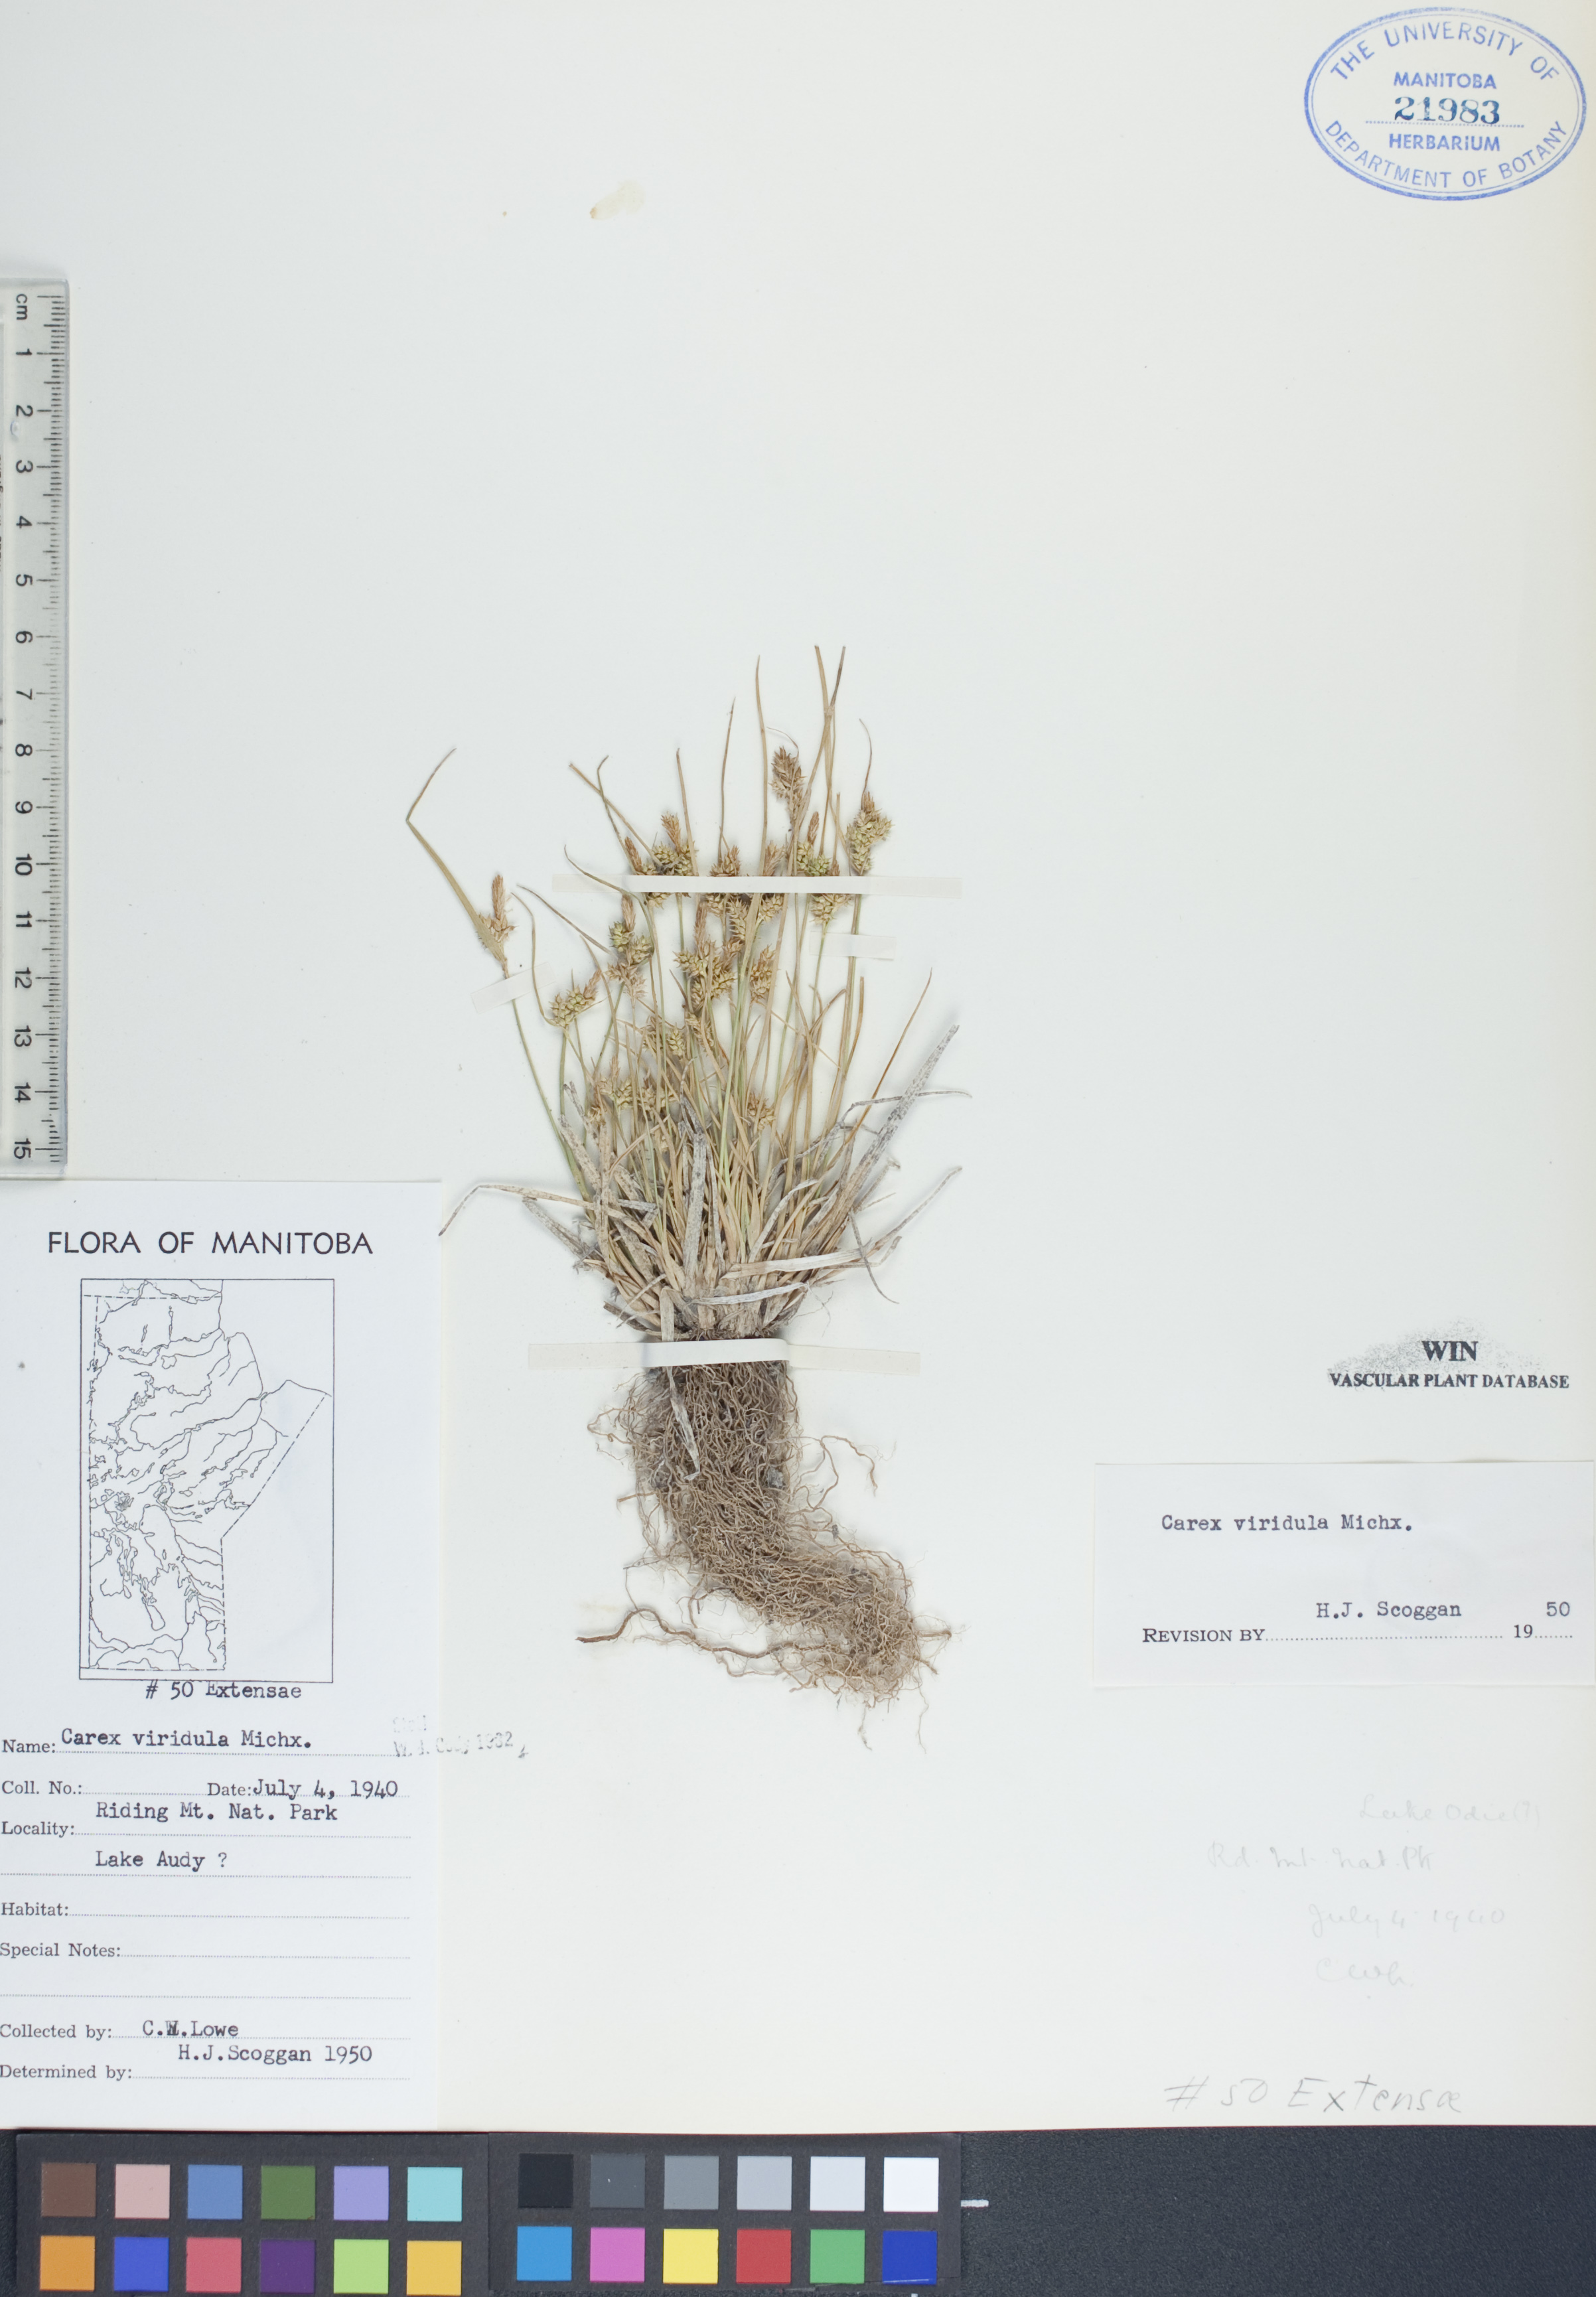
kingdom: Plantae
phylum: Tracheophyta
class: Liliopsida
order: Poales
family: Cyperaceae
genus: Carex
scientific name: Carex oederi
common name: Common & small-fruited yellow-sedge
